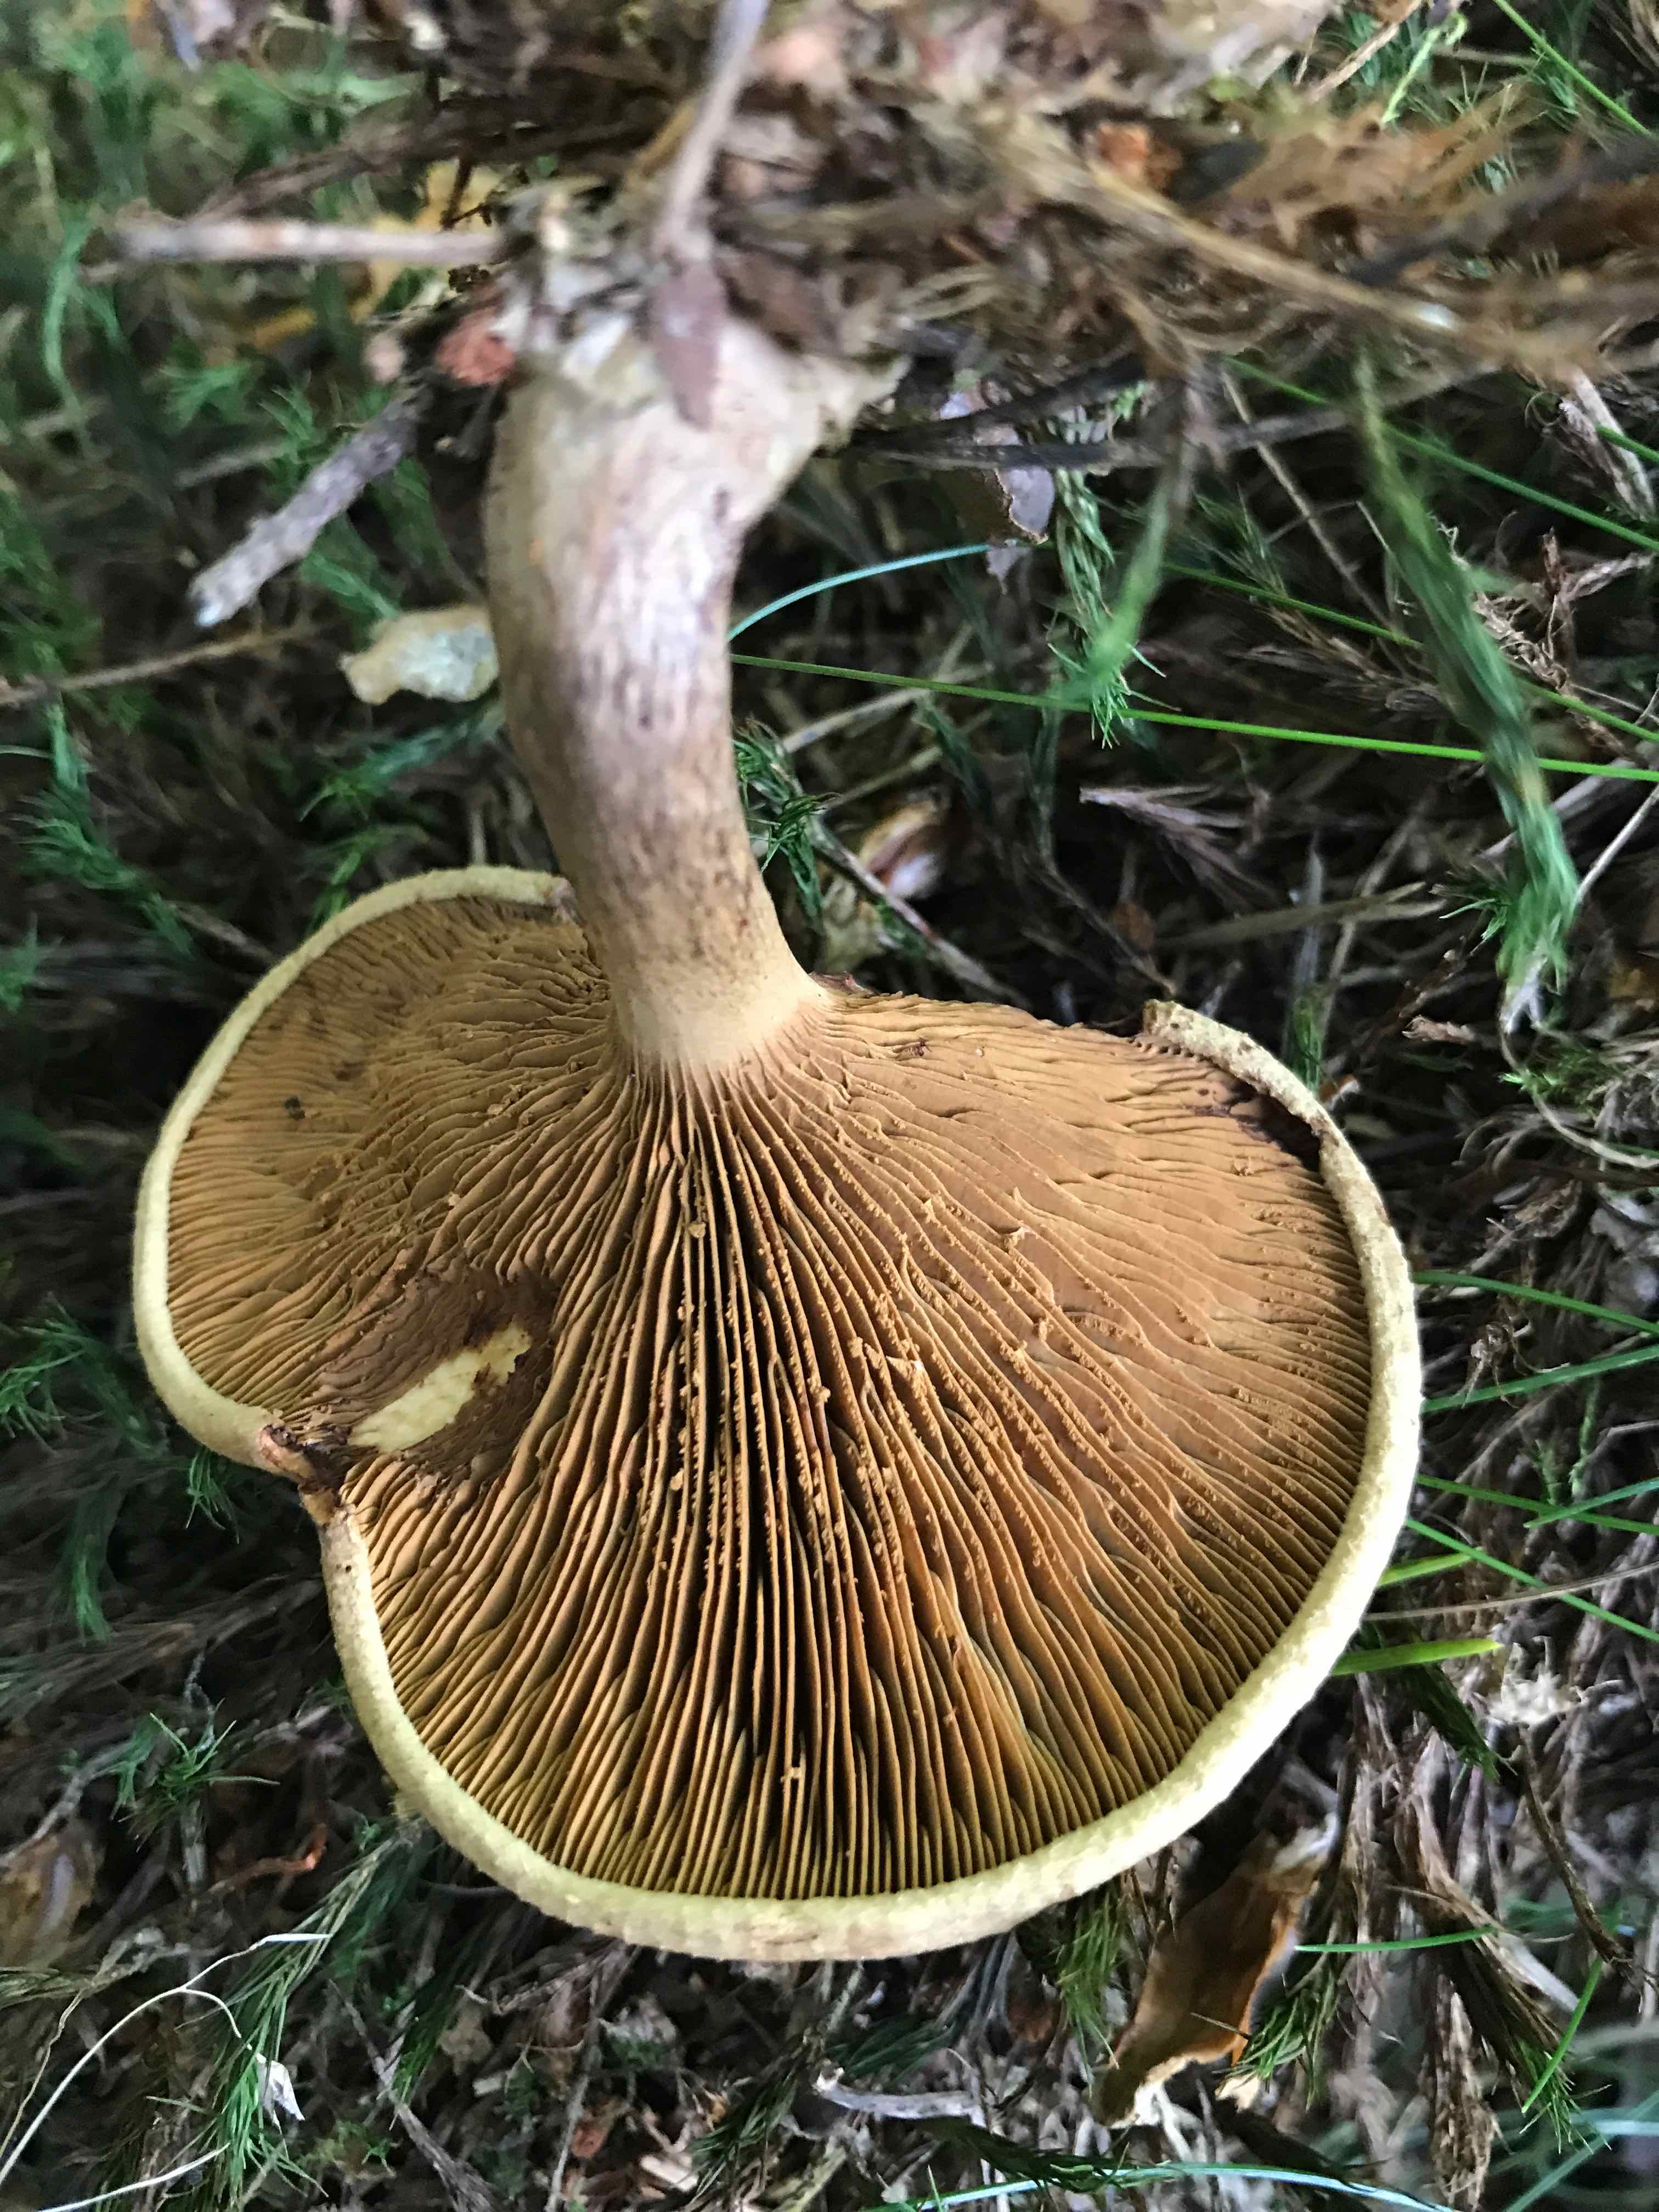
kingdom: Fungi
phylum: Basidiomycota
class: Agaricomycetes
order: Boletales
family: Paxillaceae
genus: Paxillus
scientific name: Paxillus involutus
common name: almindelig netbladhat
